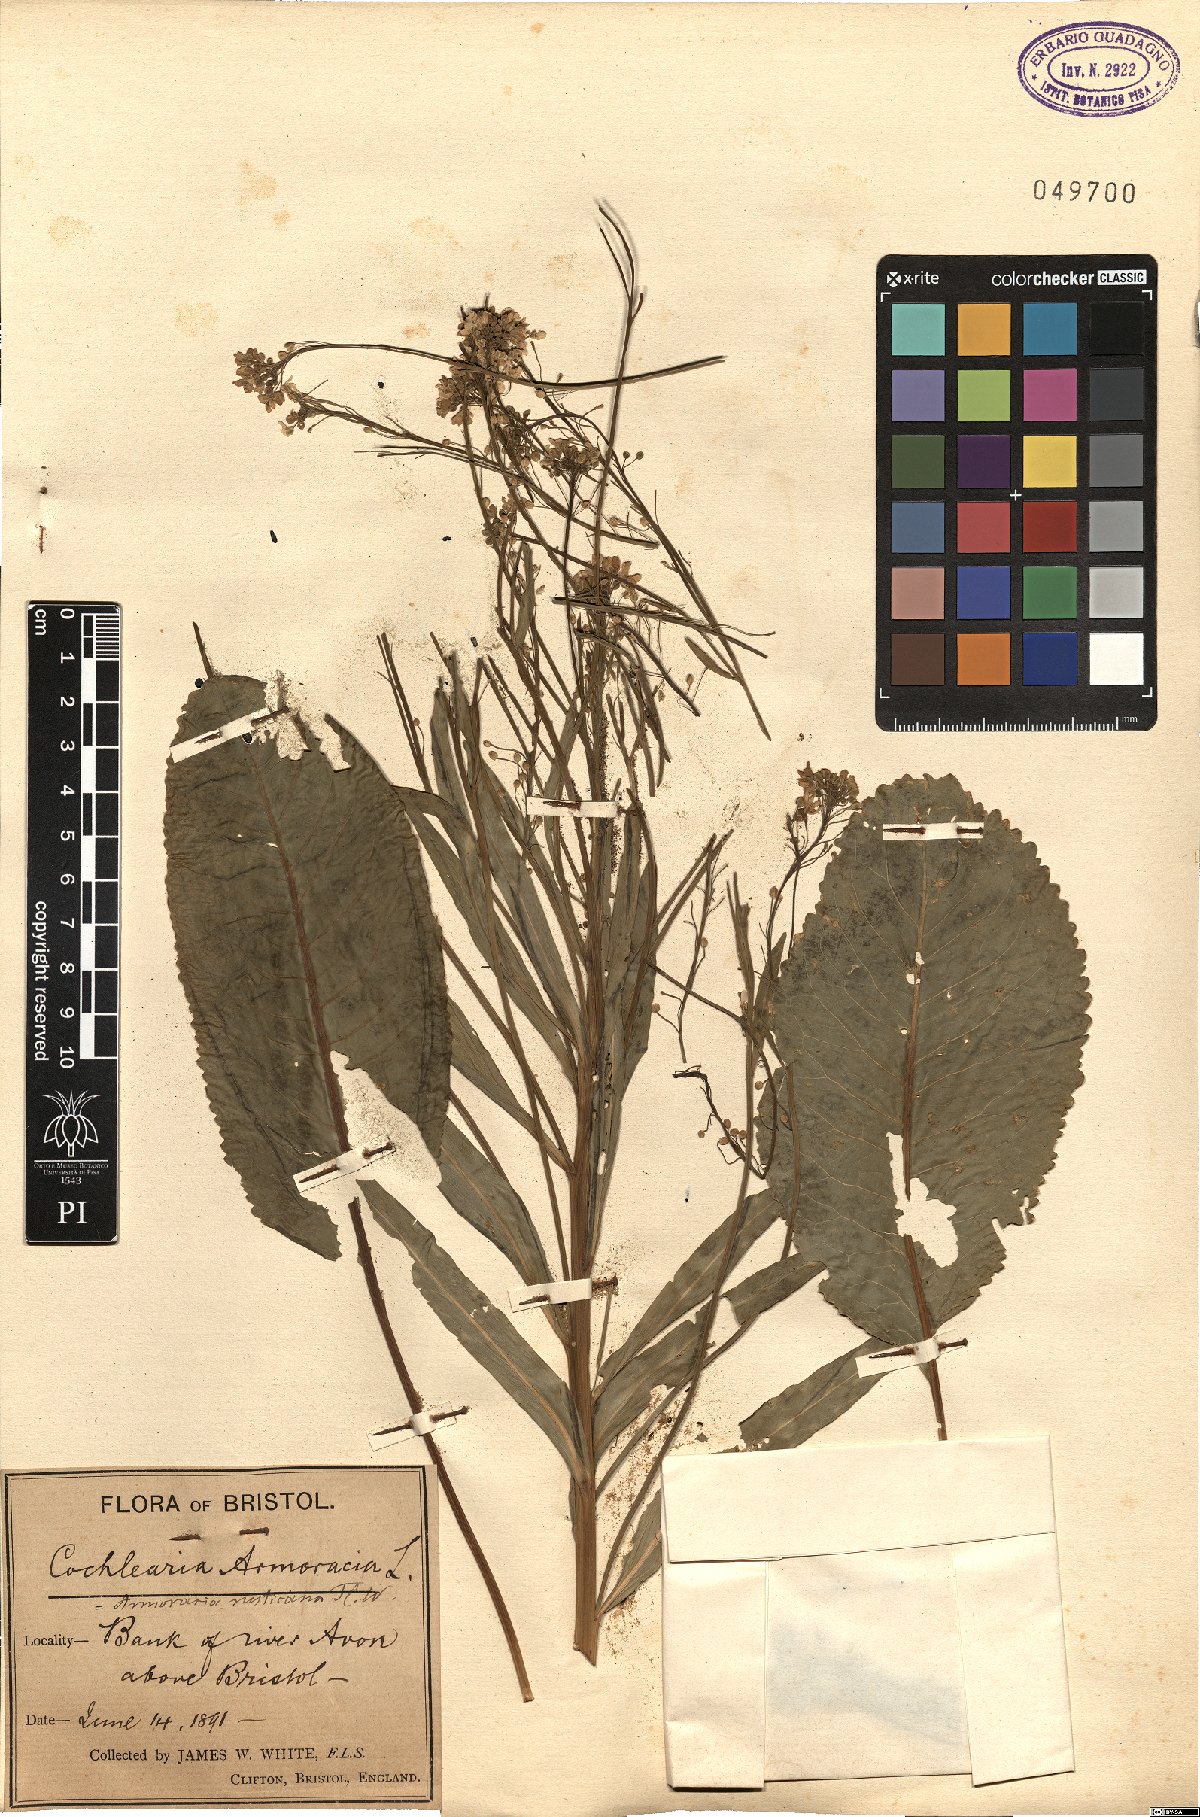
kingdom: Plantae
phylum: Tracheophyta
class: Magnoliopsida
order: Brassicales
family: Brassicaceae
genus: Armoracia
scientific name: Armoracia rusticana
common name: Horseradish
